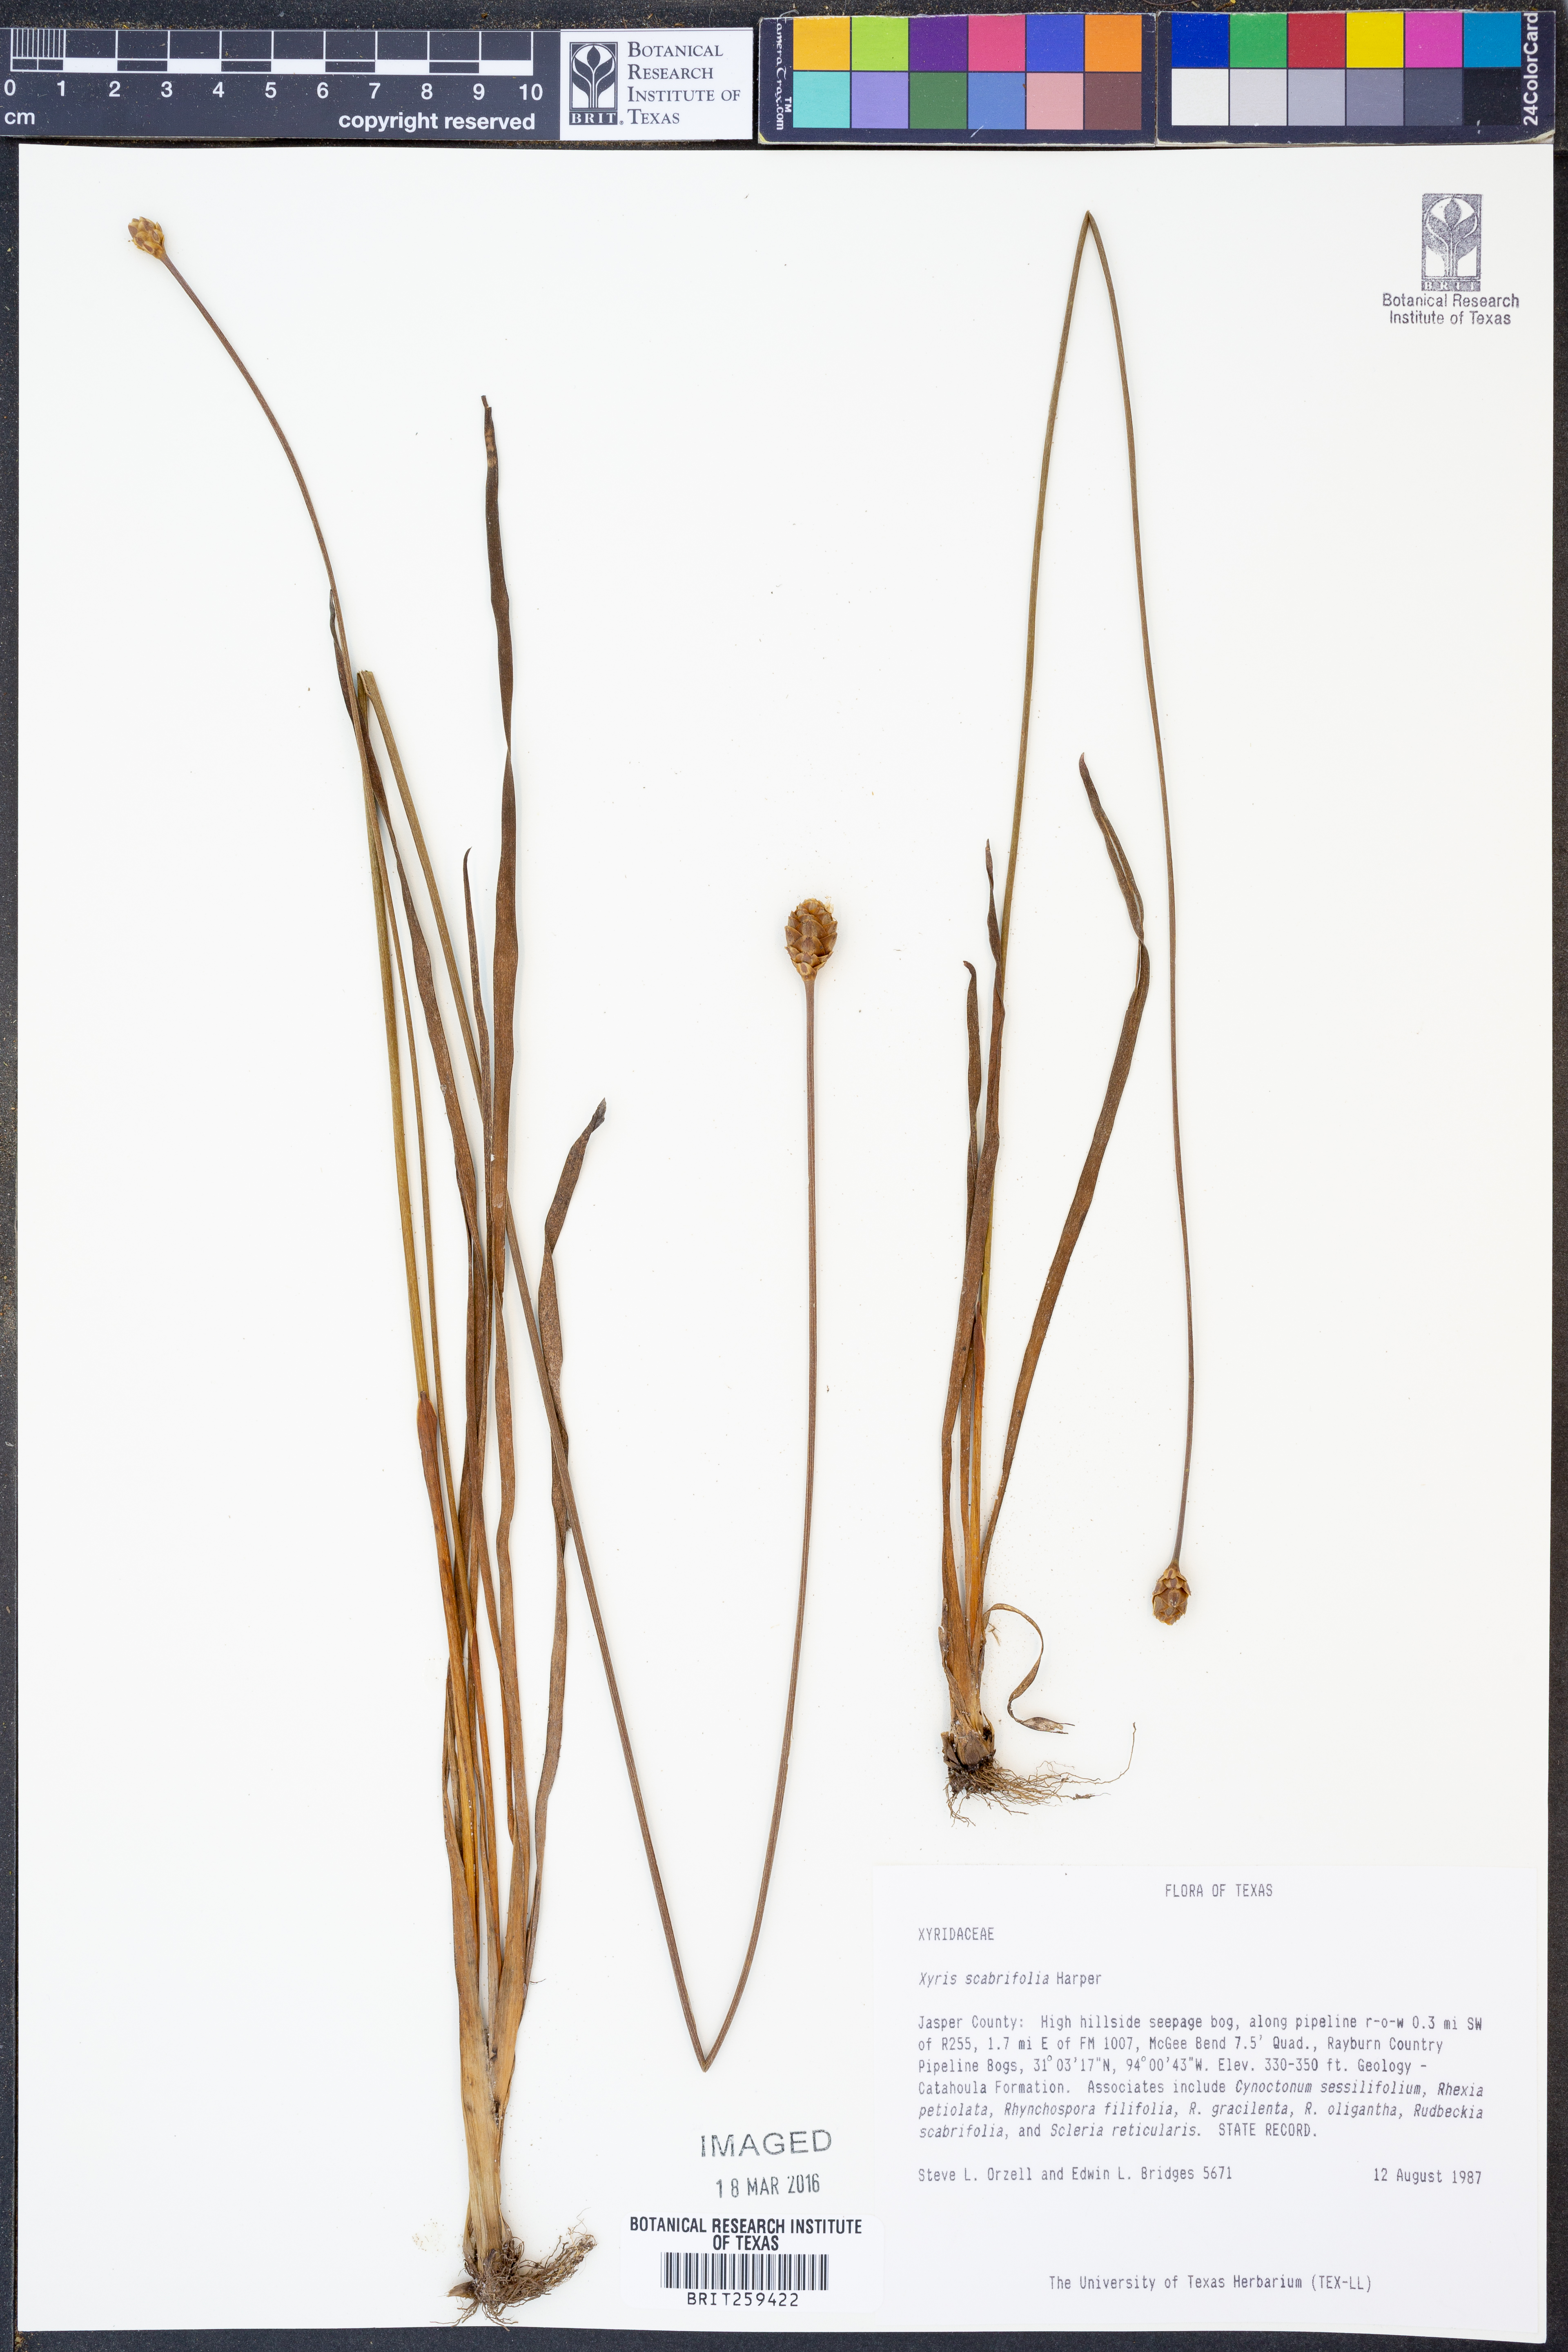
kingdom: Plantae
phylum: Tracheophyta
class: Liliopsida
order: Poales
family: Xyridaceae
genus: Xyris
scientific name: Xyris scabrifolia
